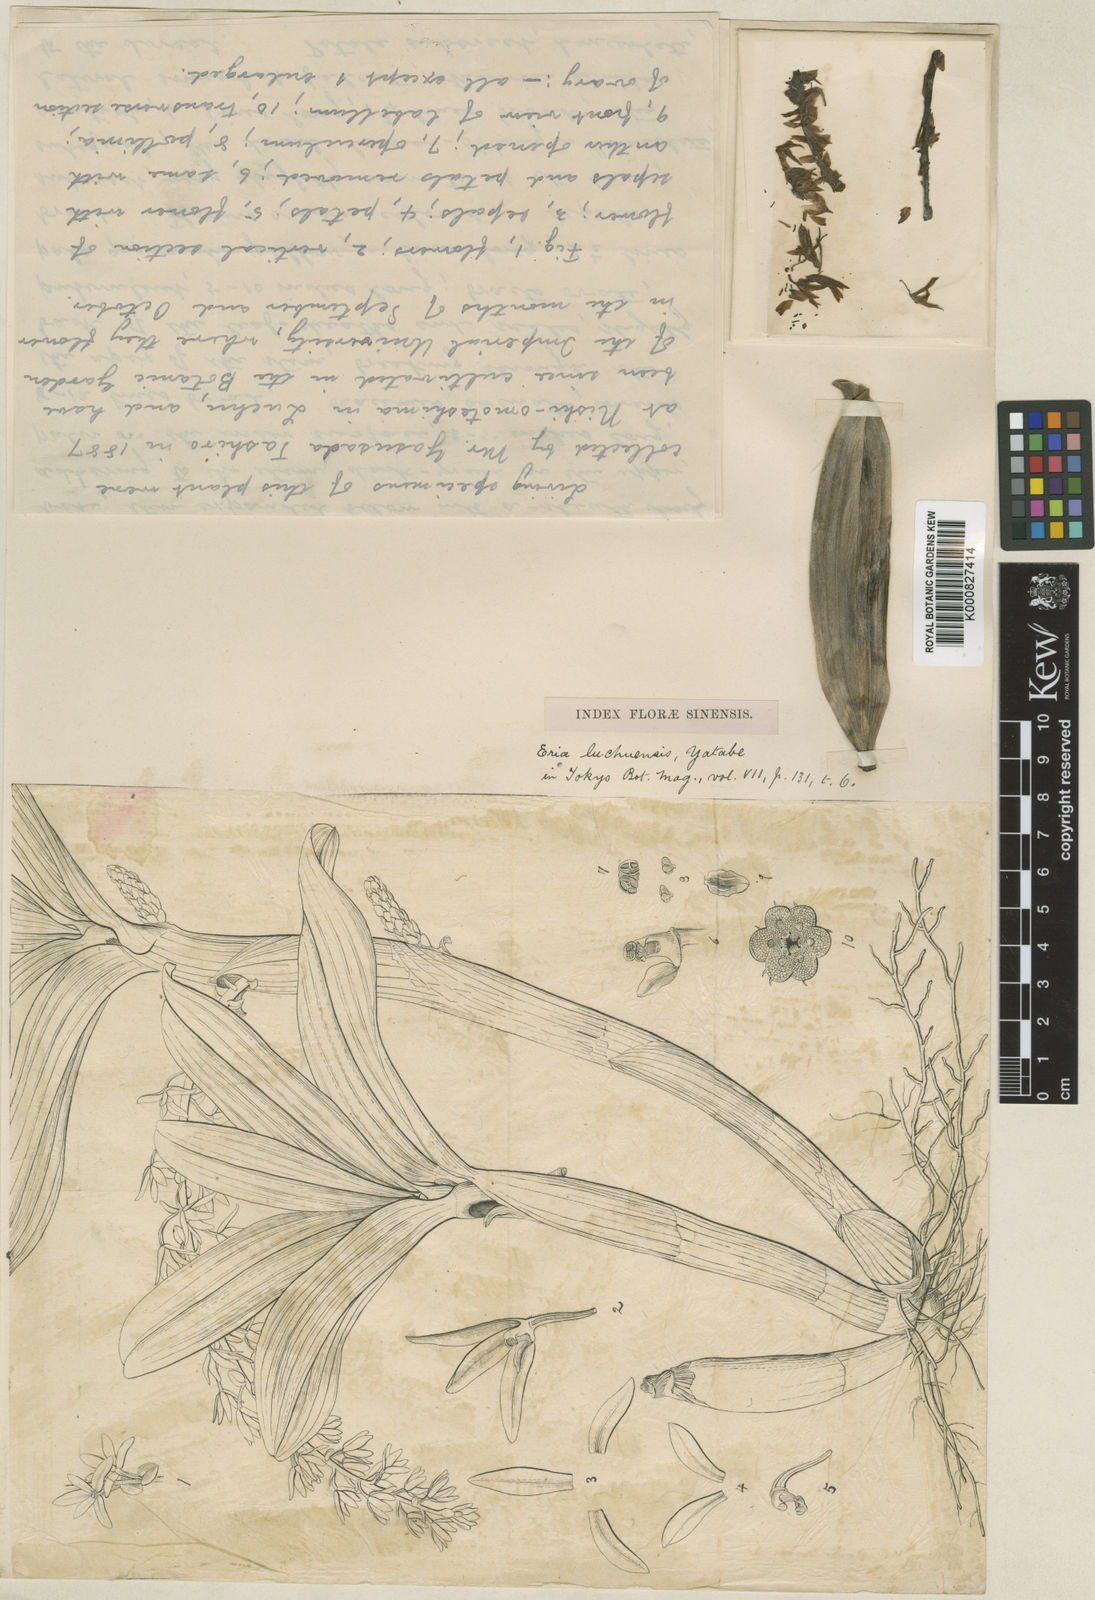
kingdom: Plantae
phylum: Tracheophyta
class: Liliopsida
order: Asparagales
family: Orchidaceae
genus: Pinalia
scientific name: Pinalia ovata
